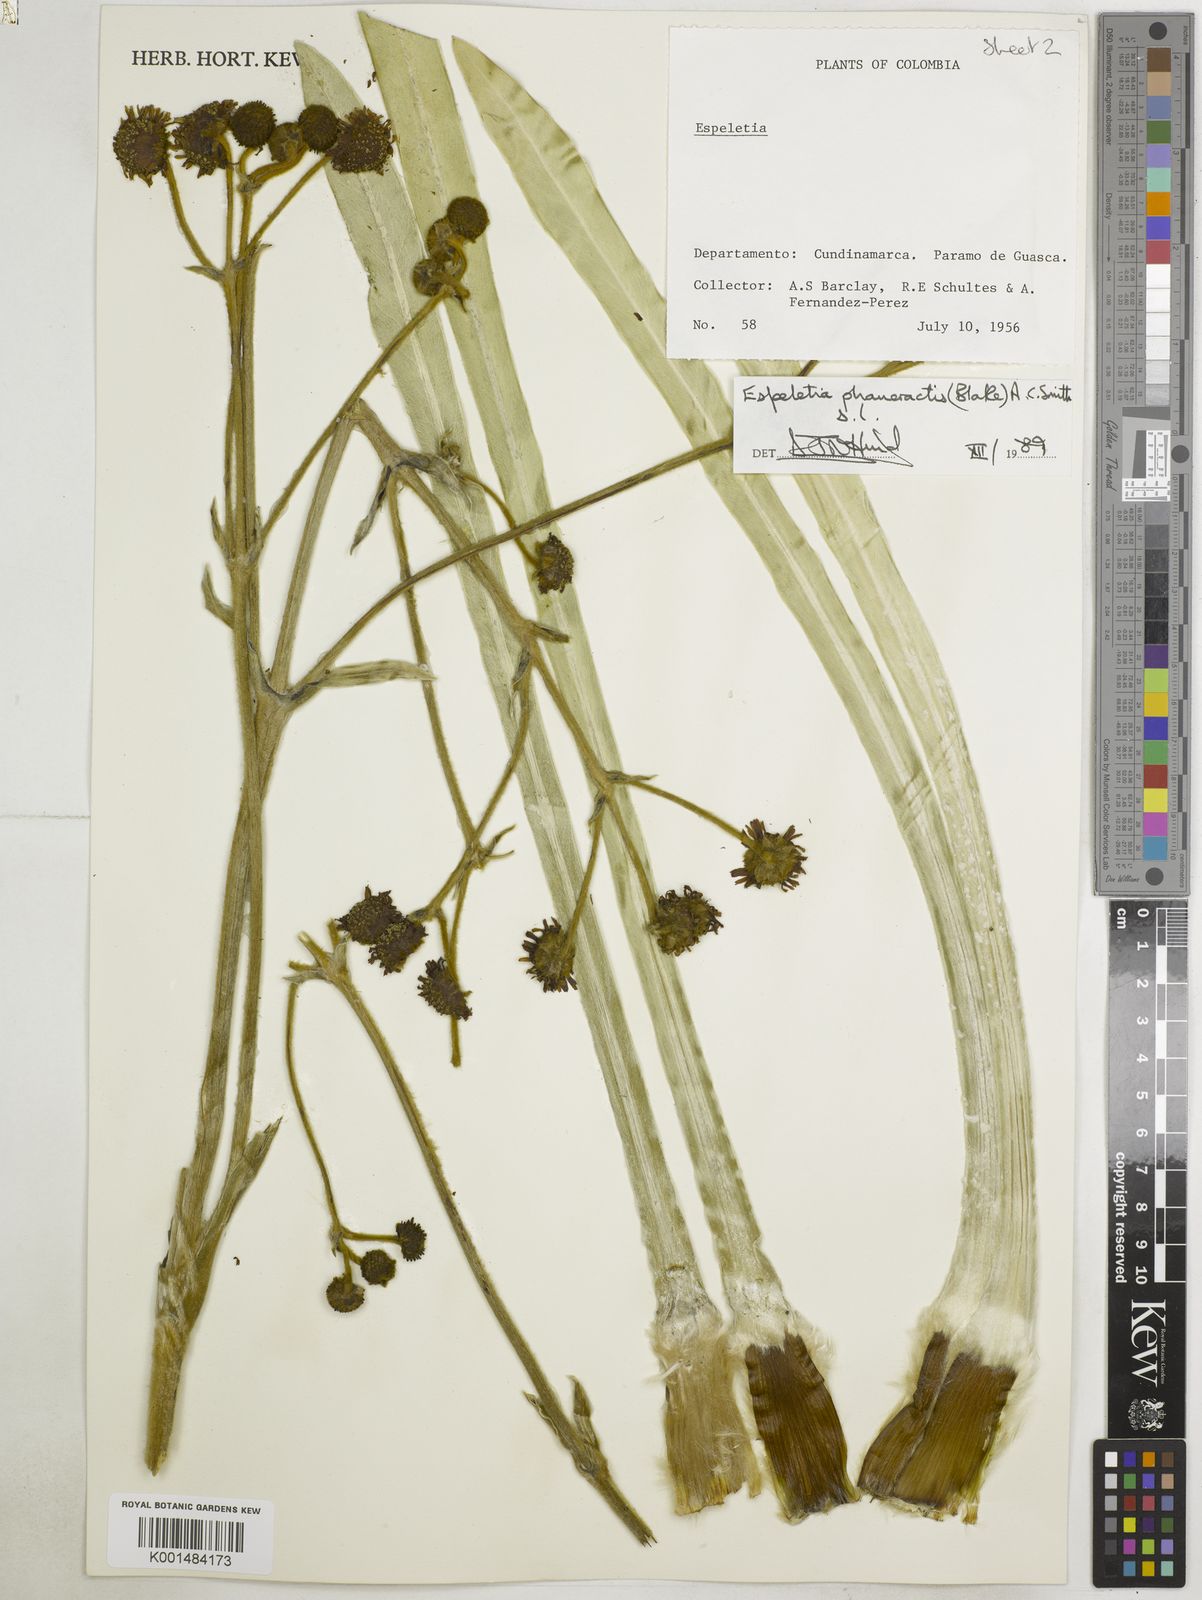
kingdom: Plantae
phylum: Tracheophyta
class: Magnoliopsida
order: Asterales
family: Asteraceae
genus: Espeletia
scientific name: Espeletia argentea
